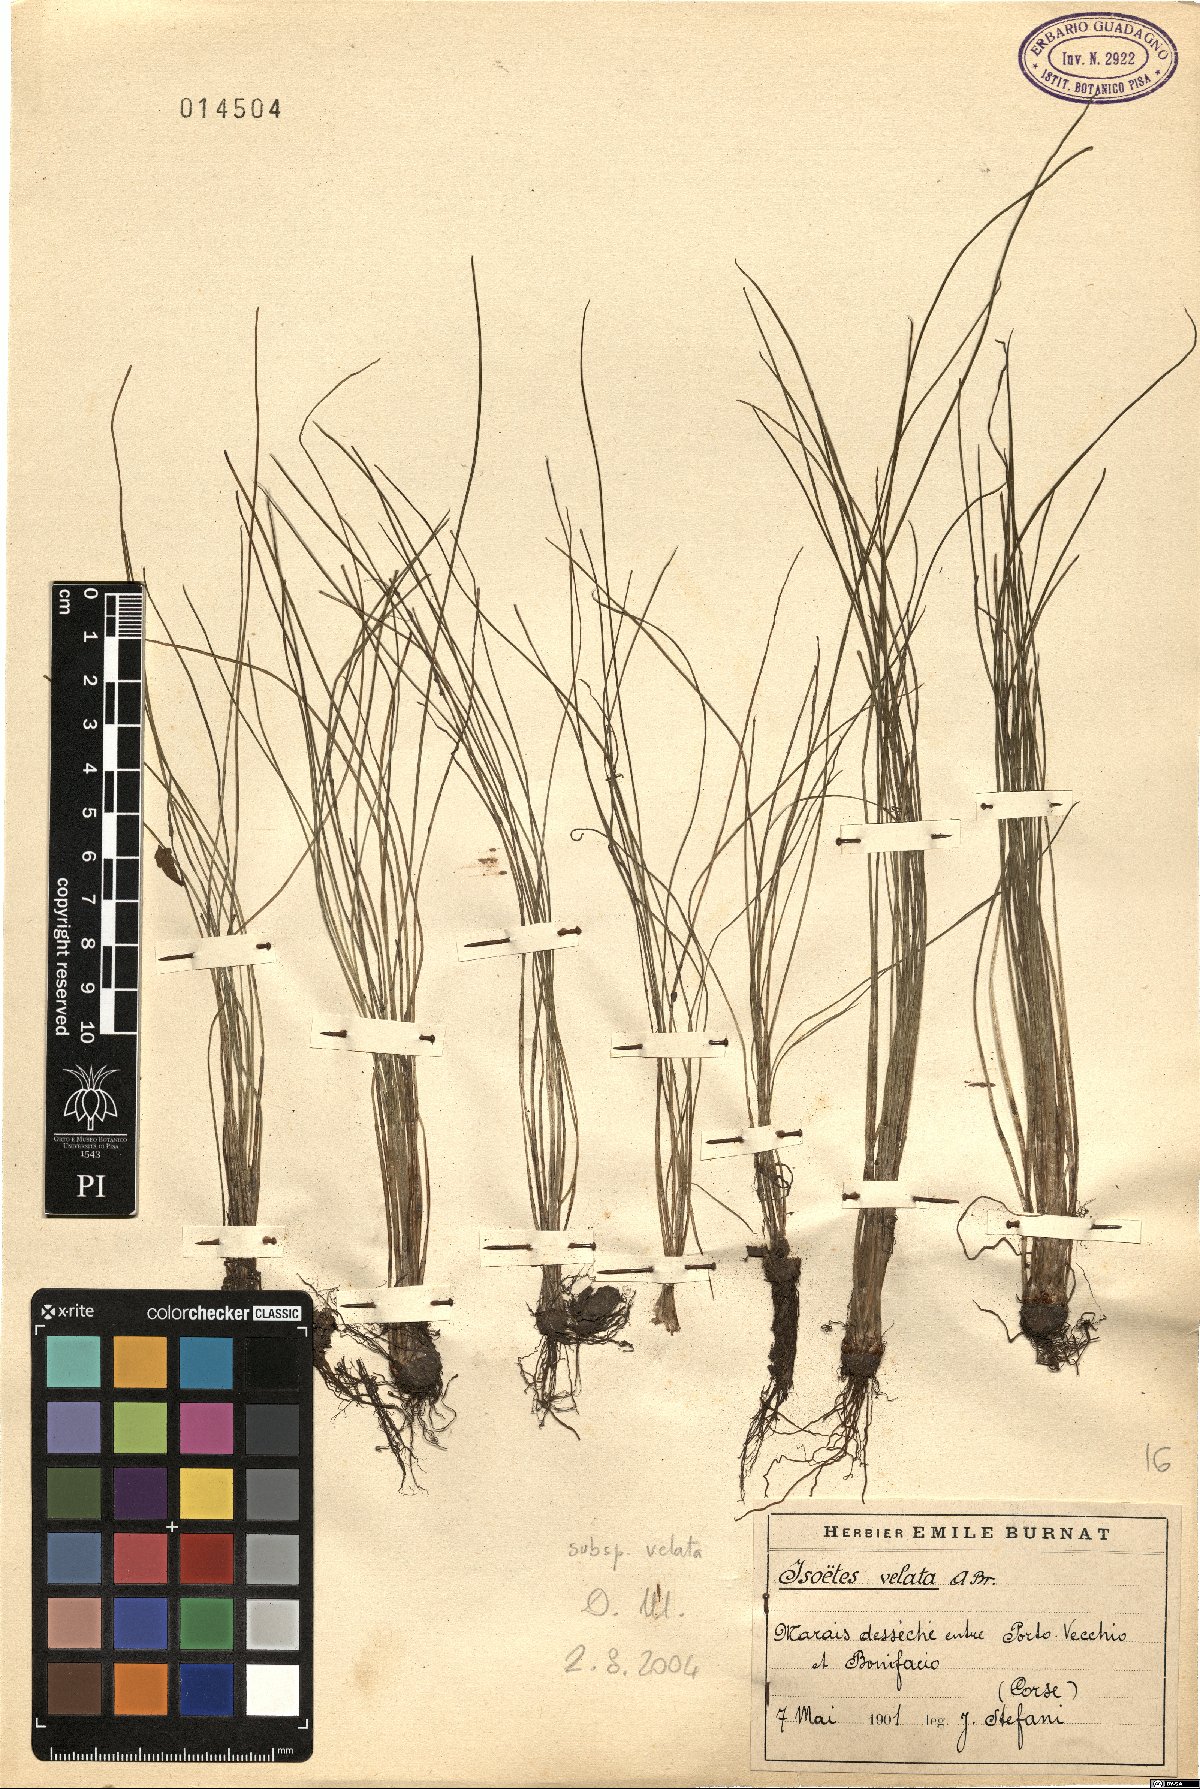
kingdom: Plantae
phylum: Tracheophyta
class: Lycopodiopsida
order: Isoetales
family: Isoetaceae
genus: Isoetes
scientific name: Isoetes longissima
